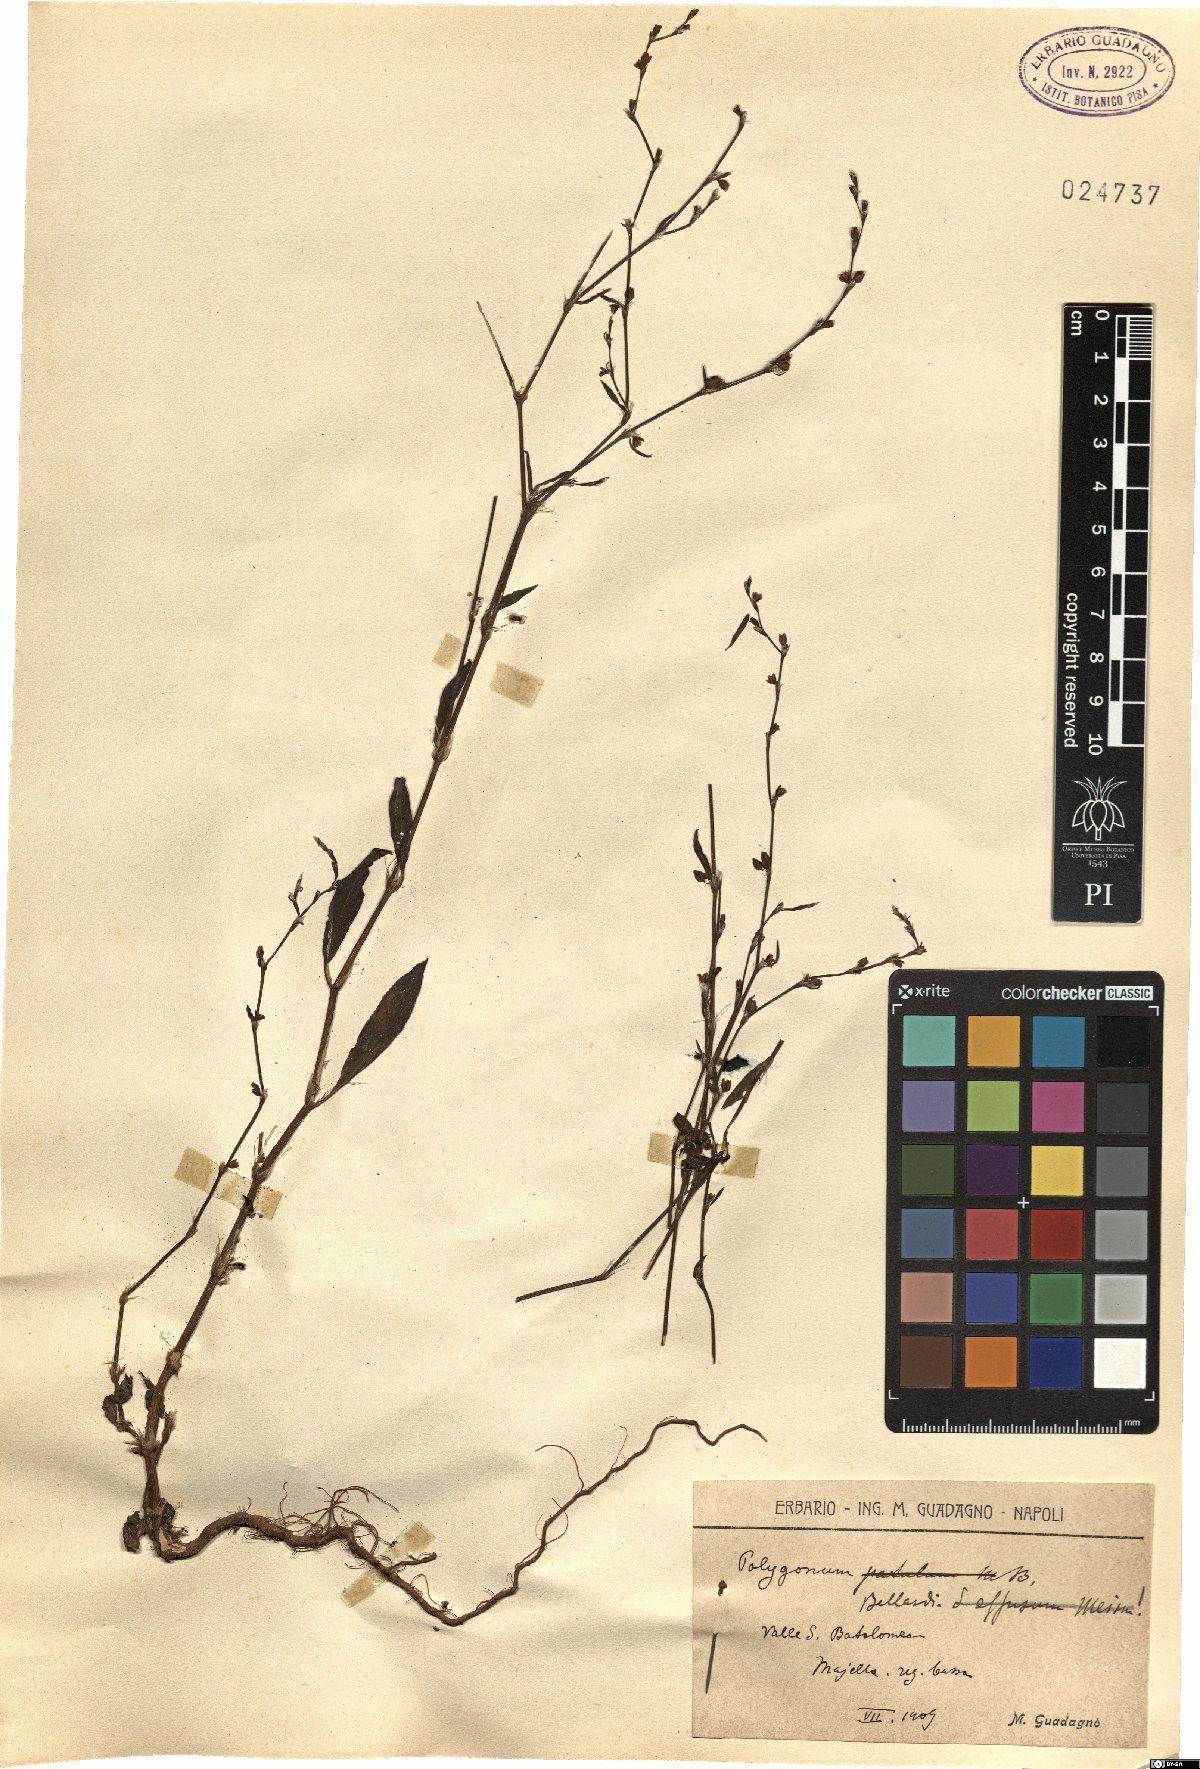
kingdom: Plantae
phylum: Tracheophyta
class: Magnoliopsida
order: Caryophyllales
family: Polygonaceae
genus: Polygonum
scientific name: Polygonum bellardii
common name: Narrowleaf knotweed
